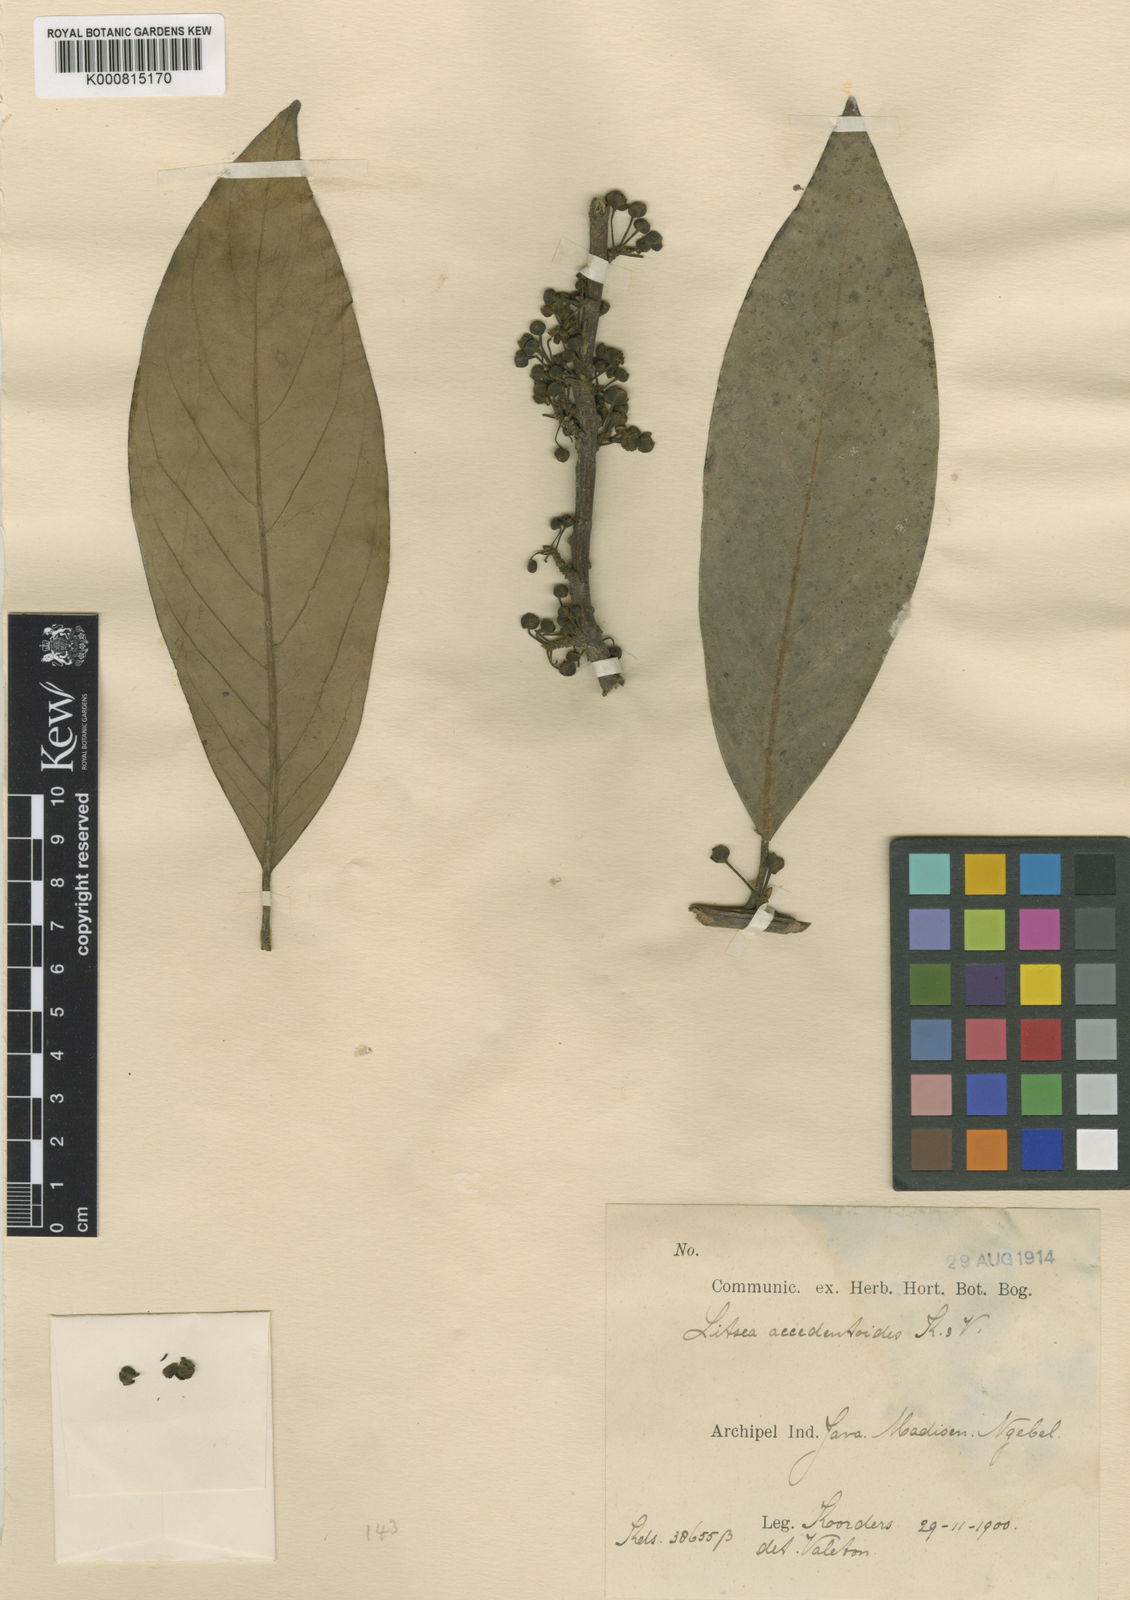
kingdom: Plantae
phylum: Tracheophyta
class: Magnoliopsida
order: Laurales
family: Lauraceae
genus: Litsea
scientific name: Litsea accedentoides
